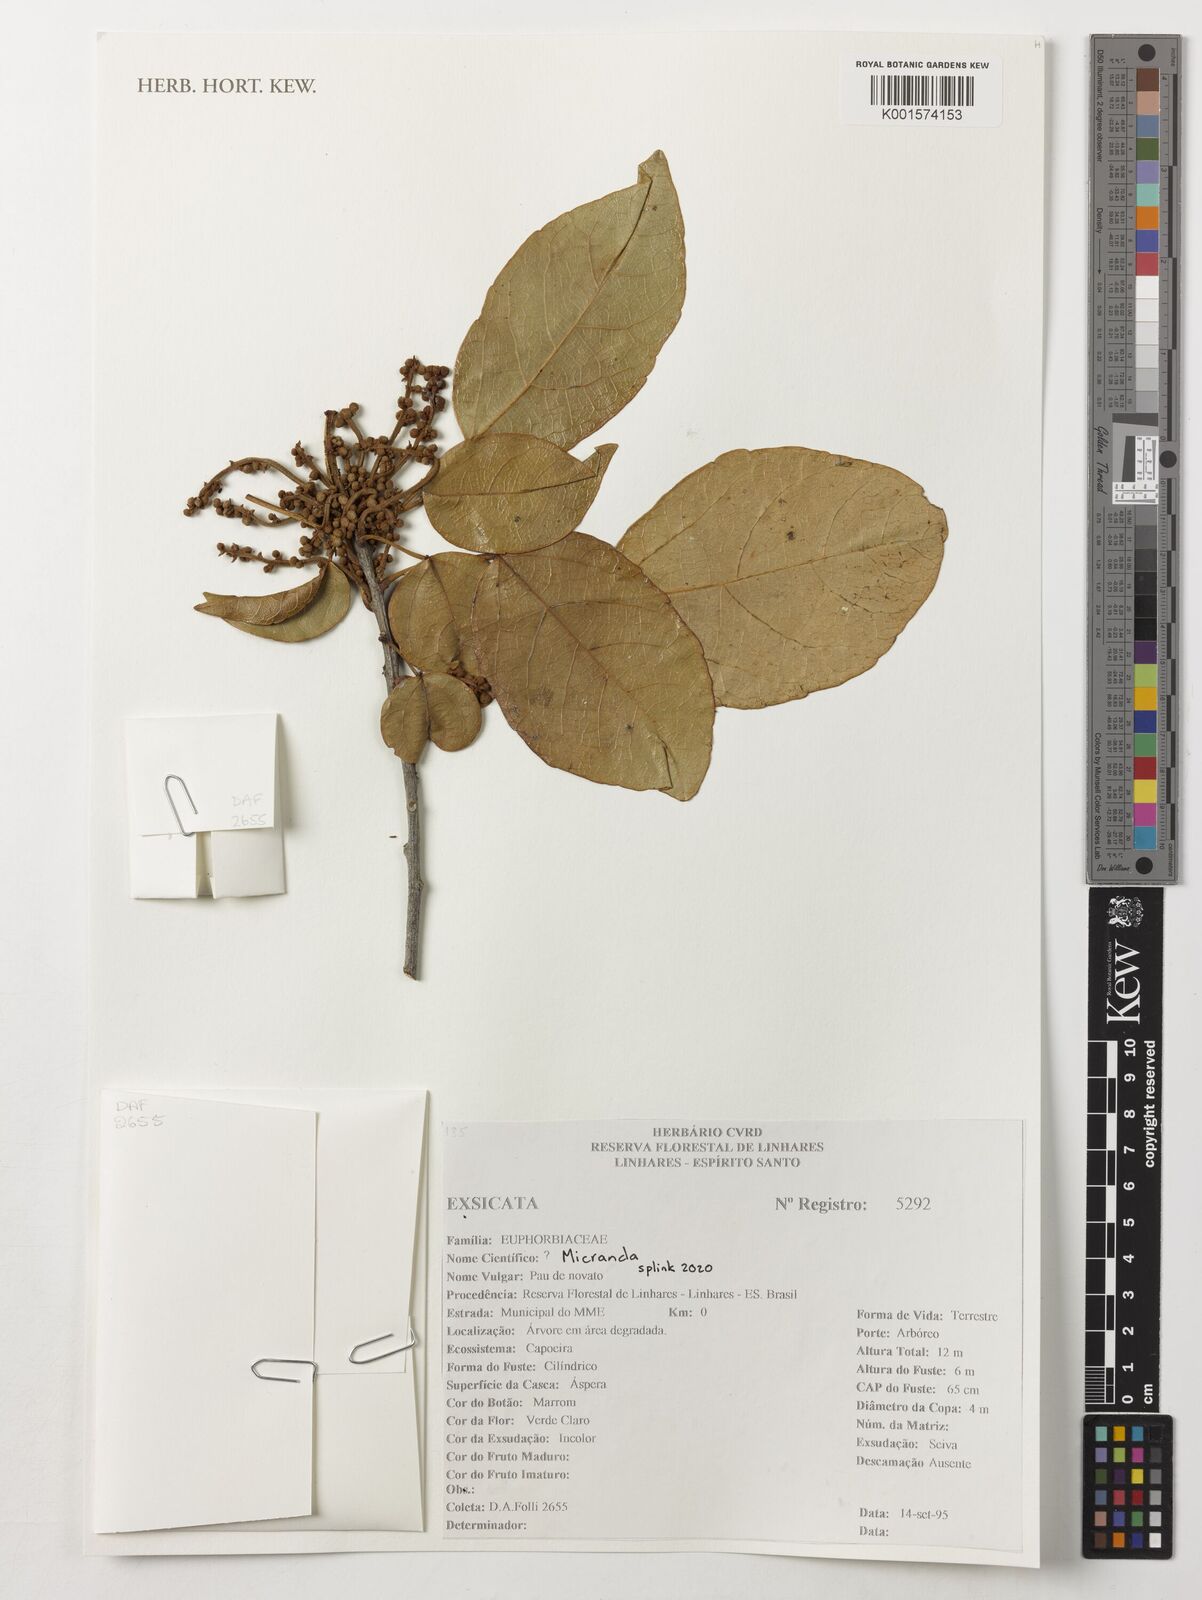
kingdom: Plantae
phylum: Tracheophyta
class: Magnoliopsida
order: Malpighiales
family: Euphorbiaceae
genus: Micrandra
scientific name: Micrandra
